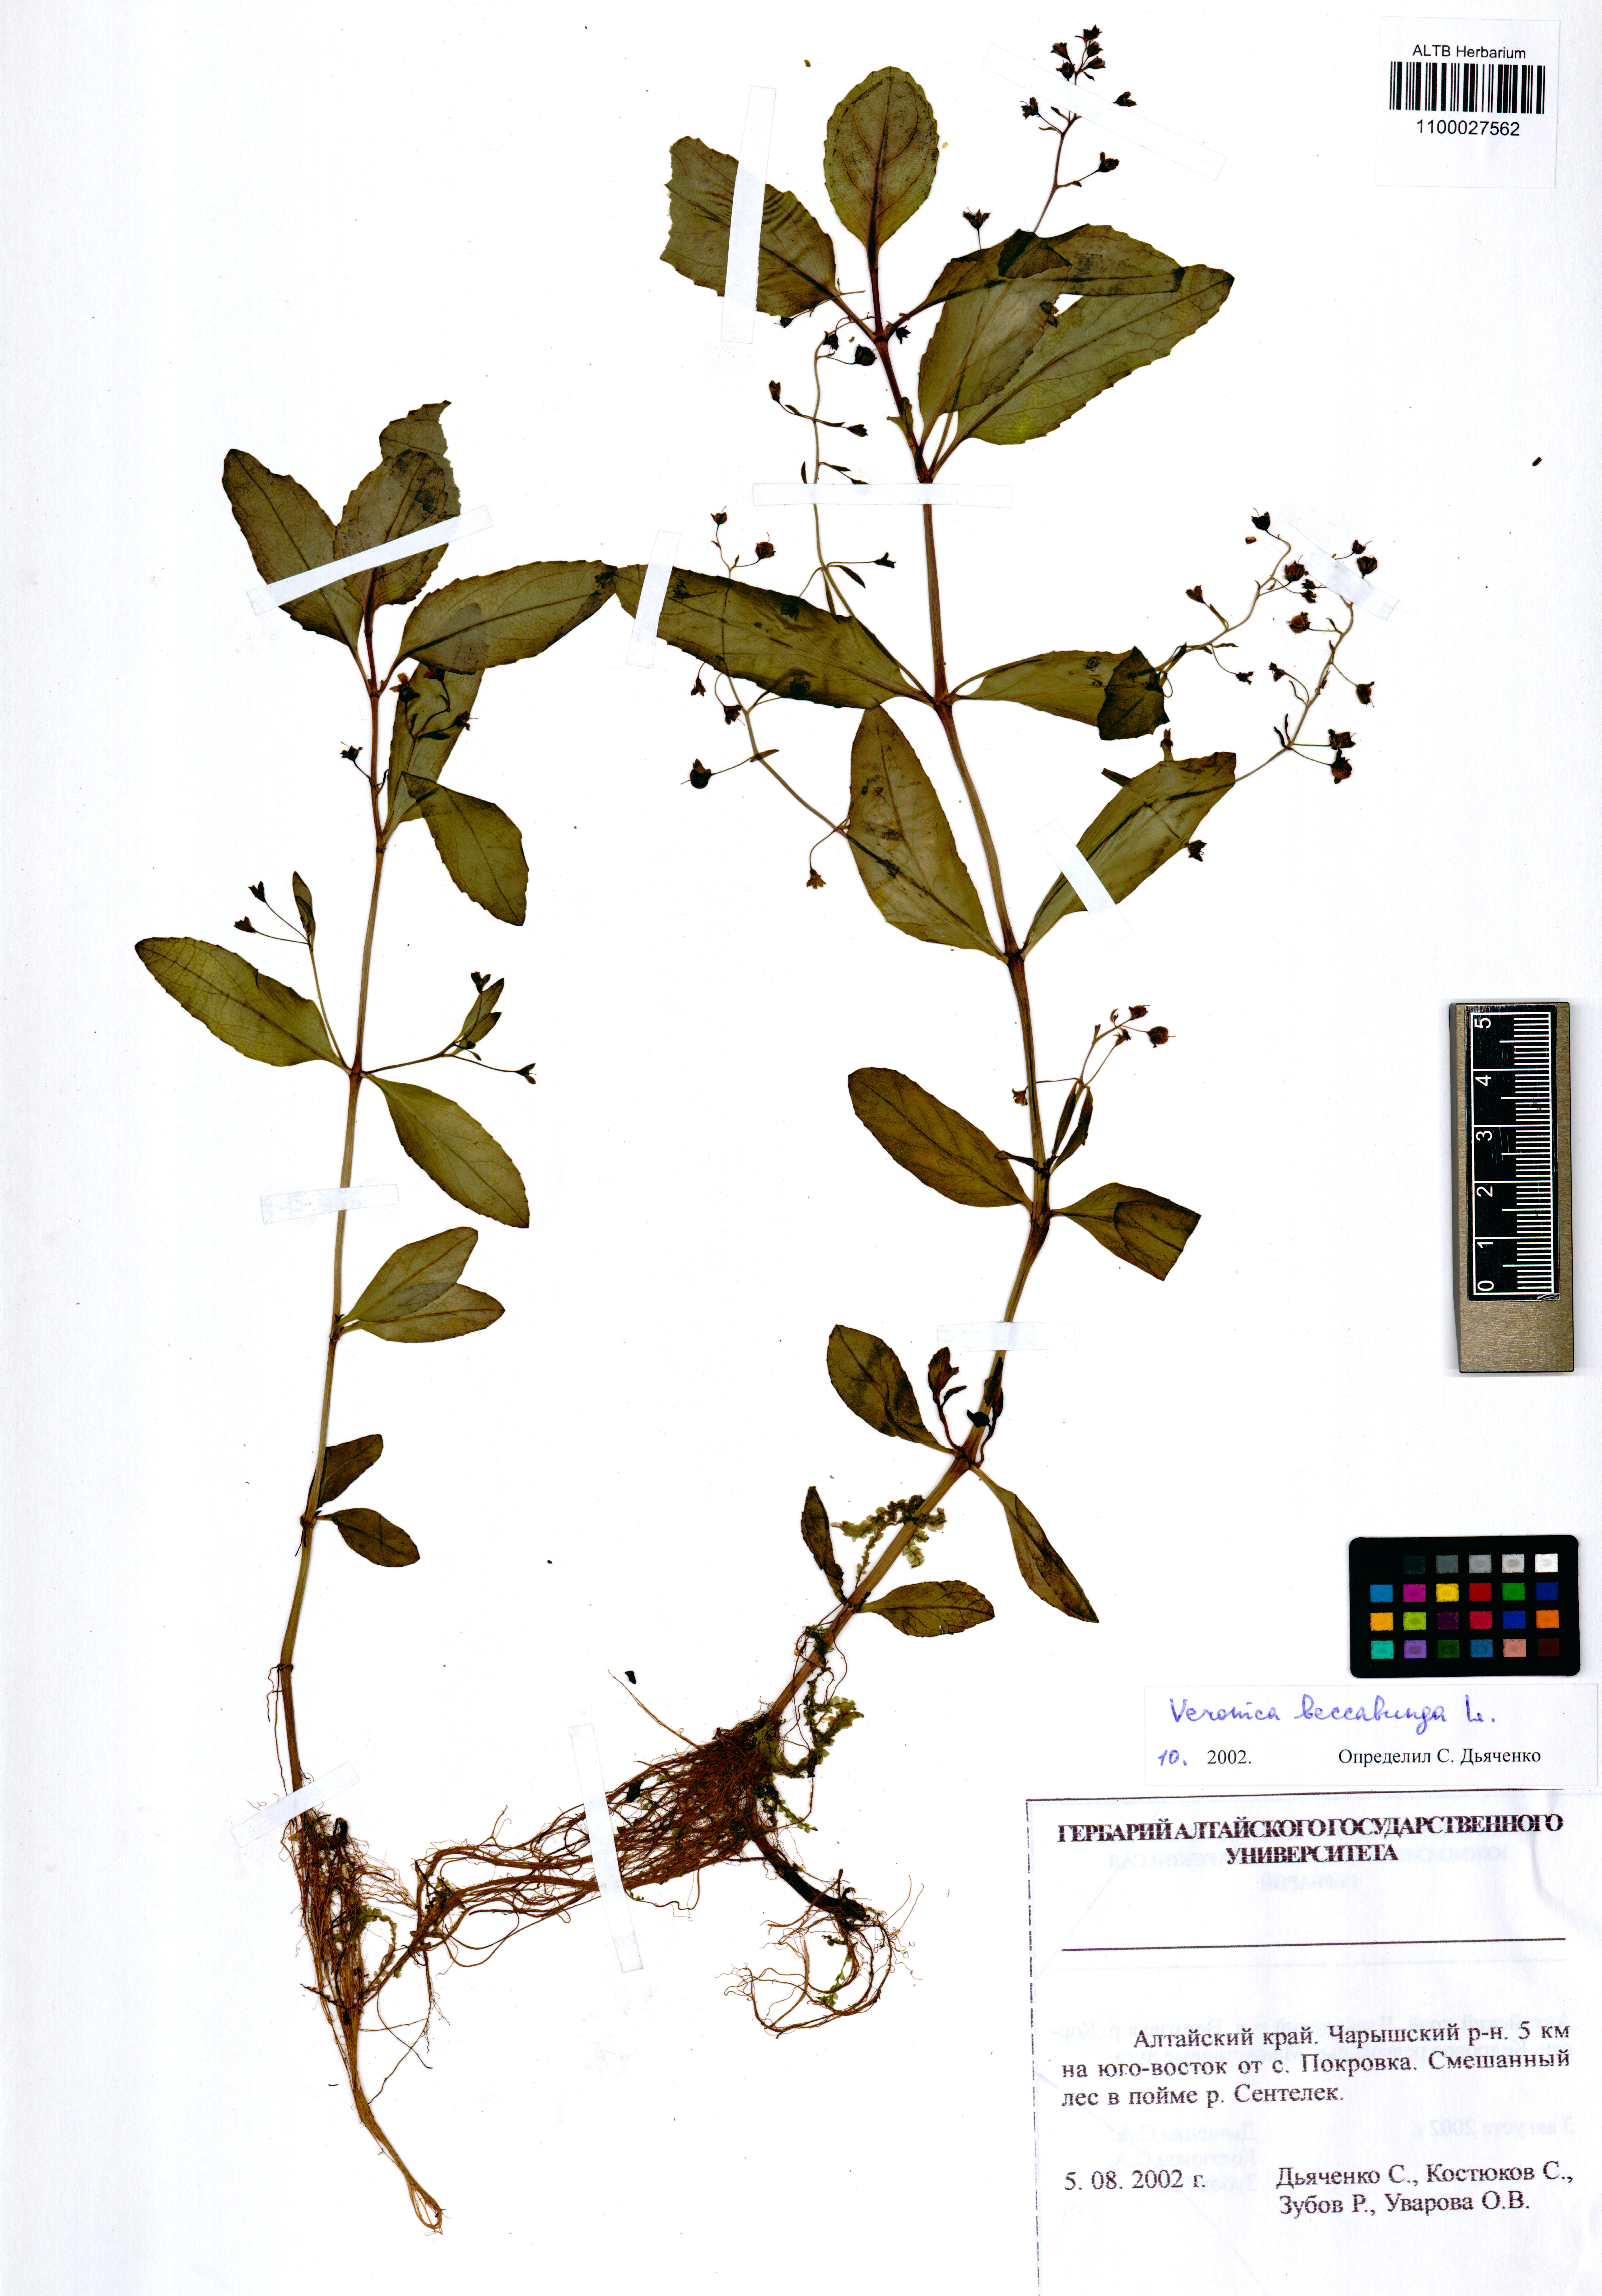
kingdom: Plantae
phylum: Tracheophyta
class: Magnoliopsida
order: Lamiales
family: Plantaginaceae
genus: Veronica
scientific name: Veronica beccabunga
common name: Brooklime
